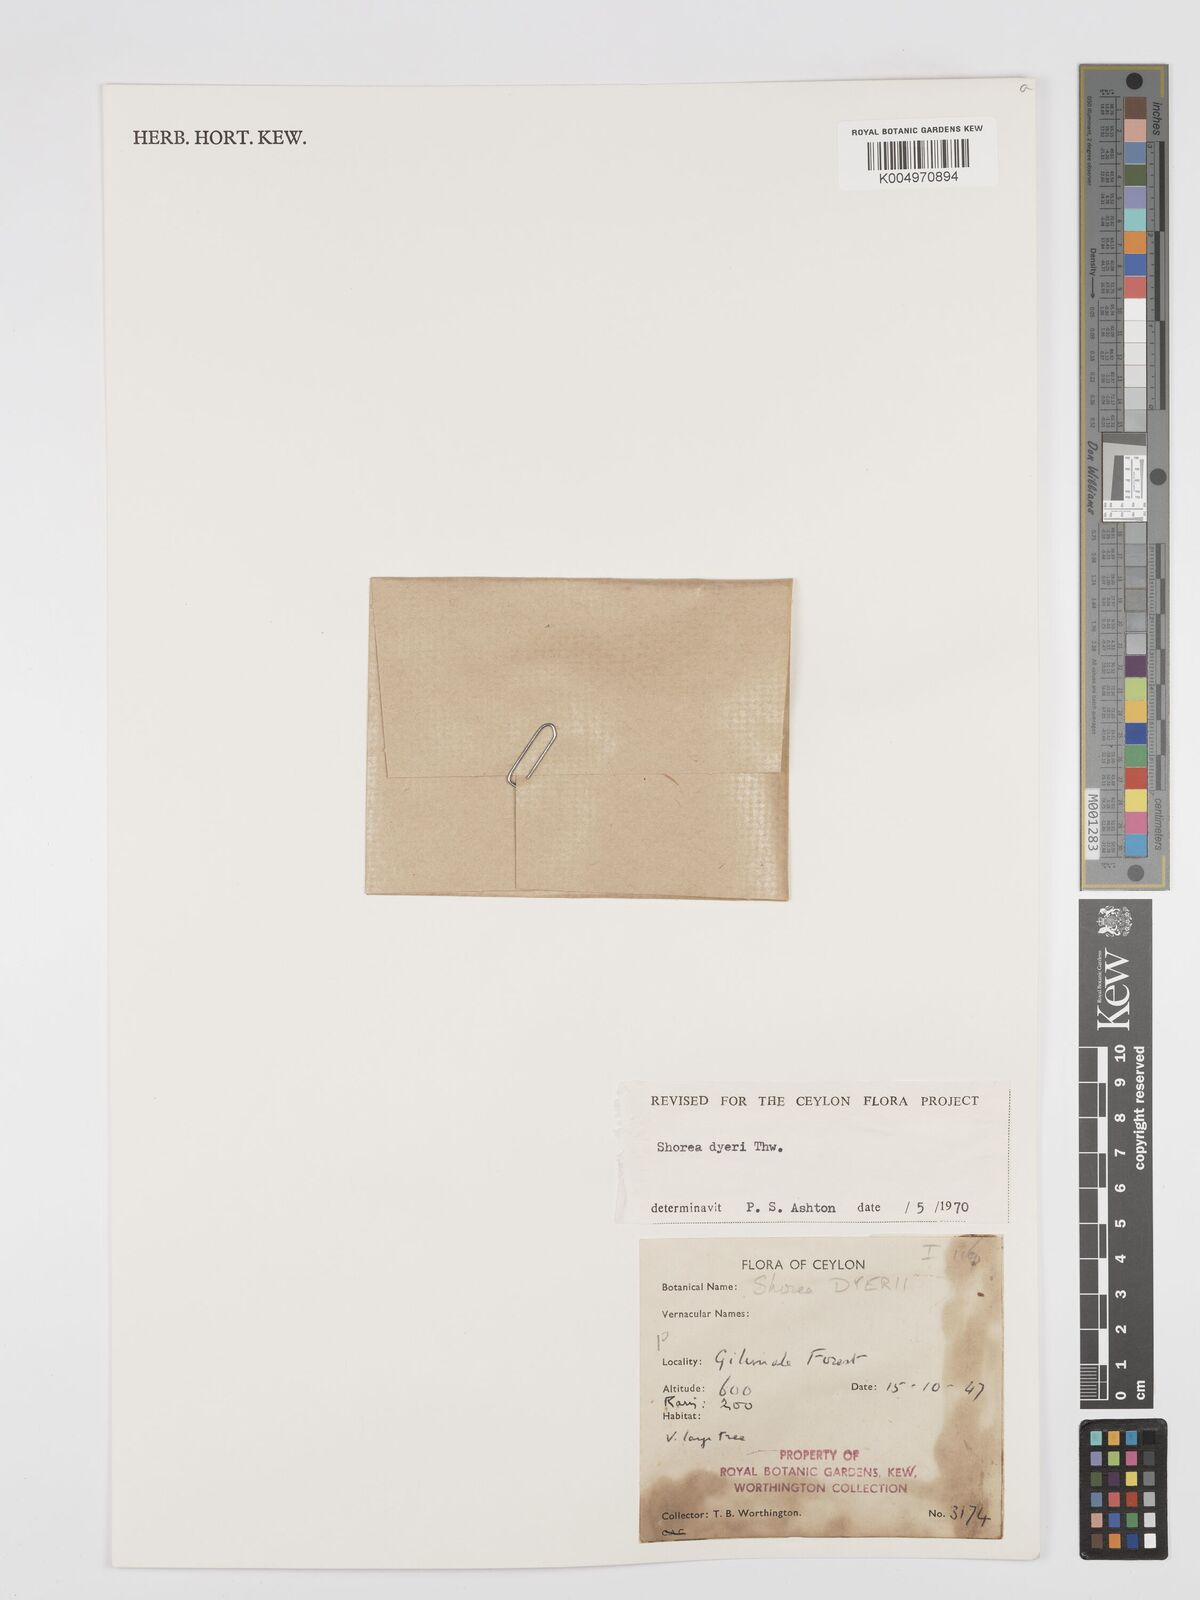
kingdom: Plantae
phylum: Tracheophyta
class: Magnoliopsida
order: Malvales
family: Dipterocarpaceae
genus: Shorea
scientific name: Shorea dyeri
